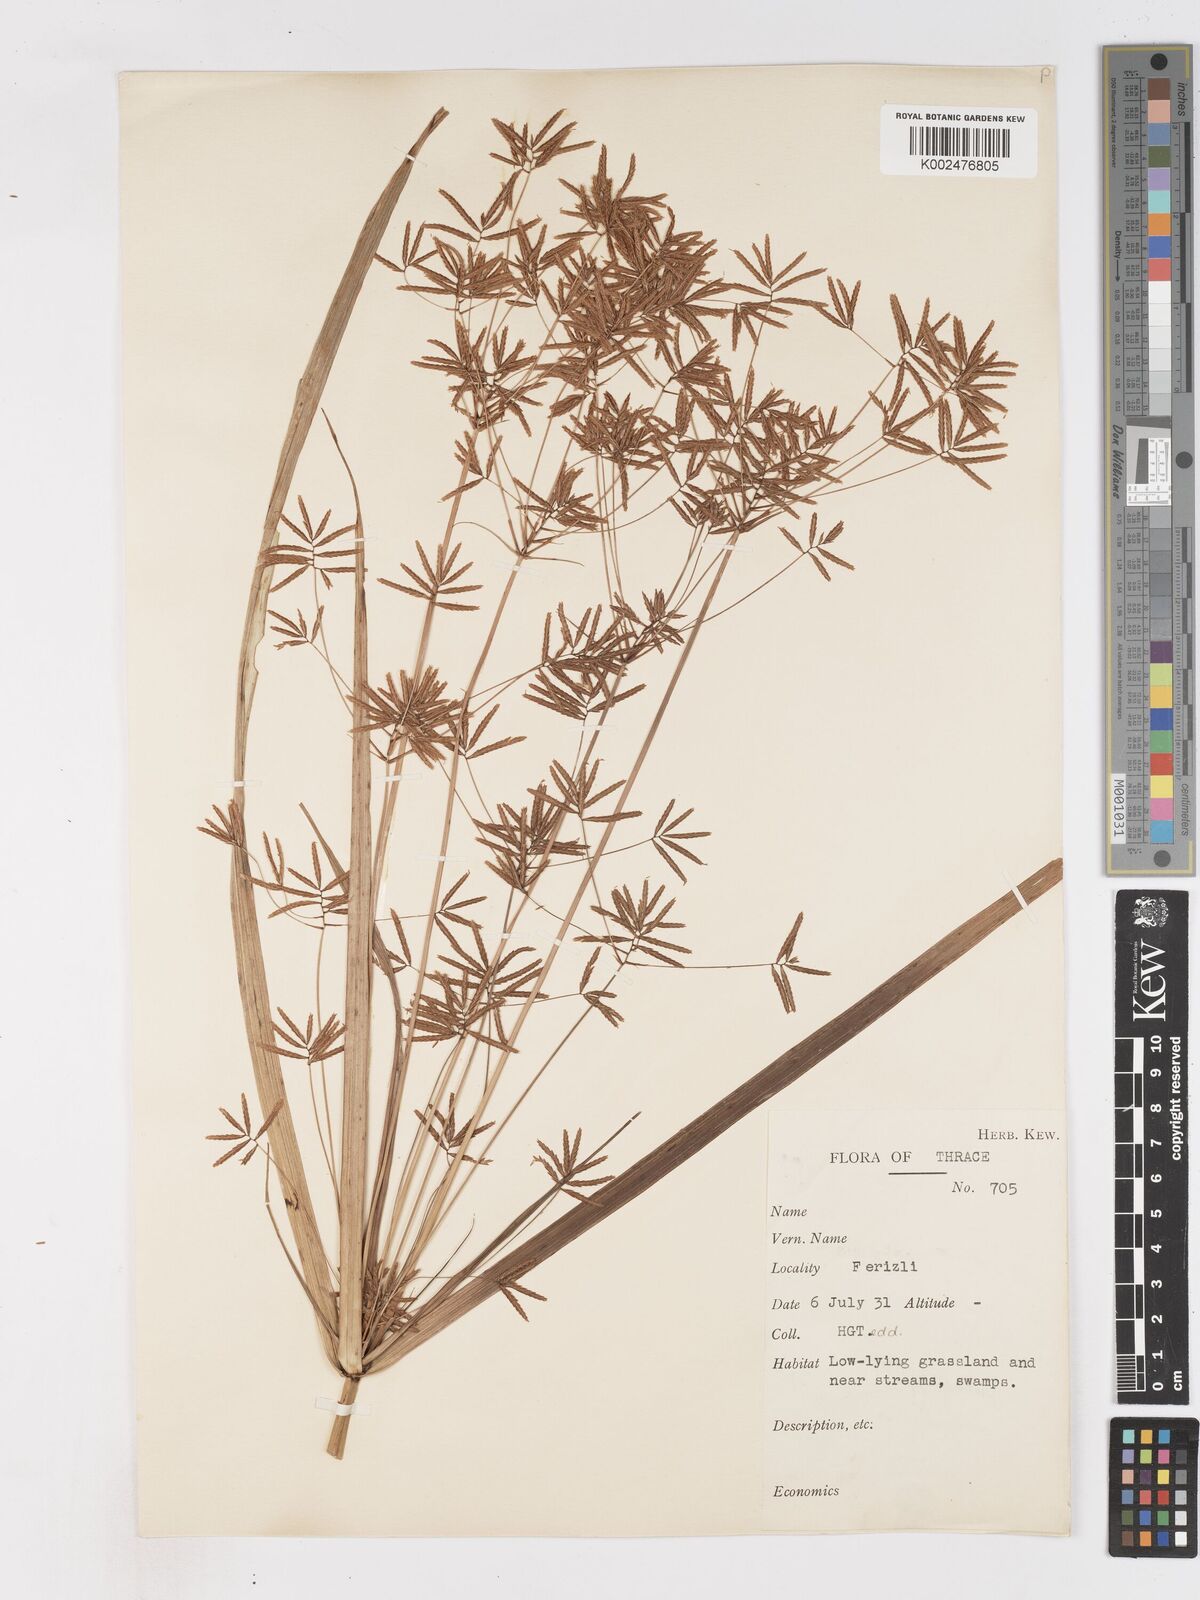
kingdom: Plantae
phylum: Tracheophyta
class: Liliopsida
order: Poales
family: Cyperaceae
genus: Cyperus
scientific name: Cyperus longus
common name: Galingale
